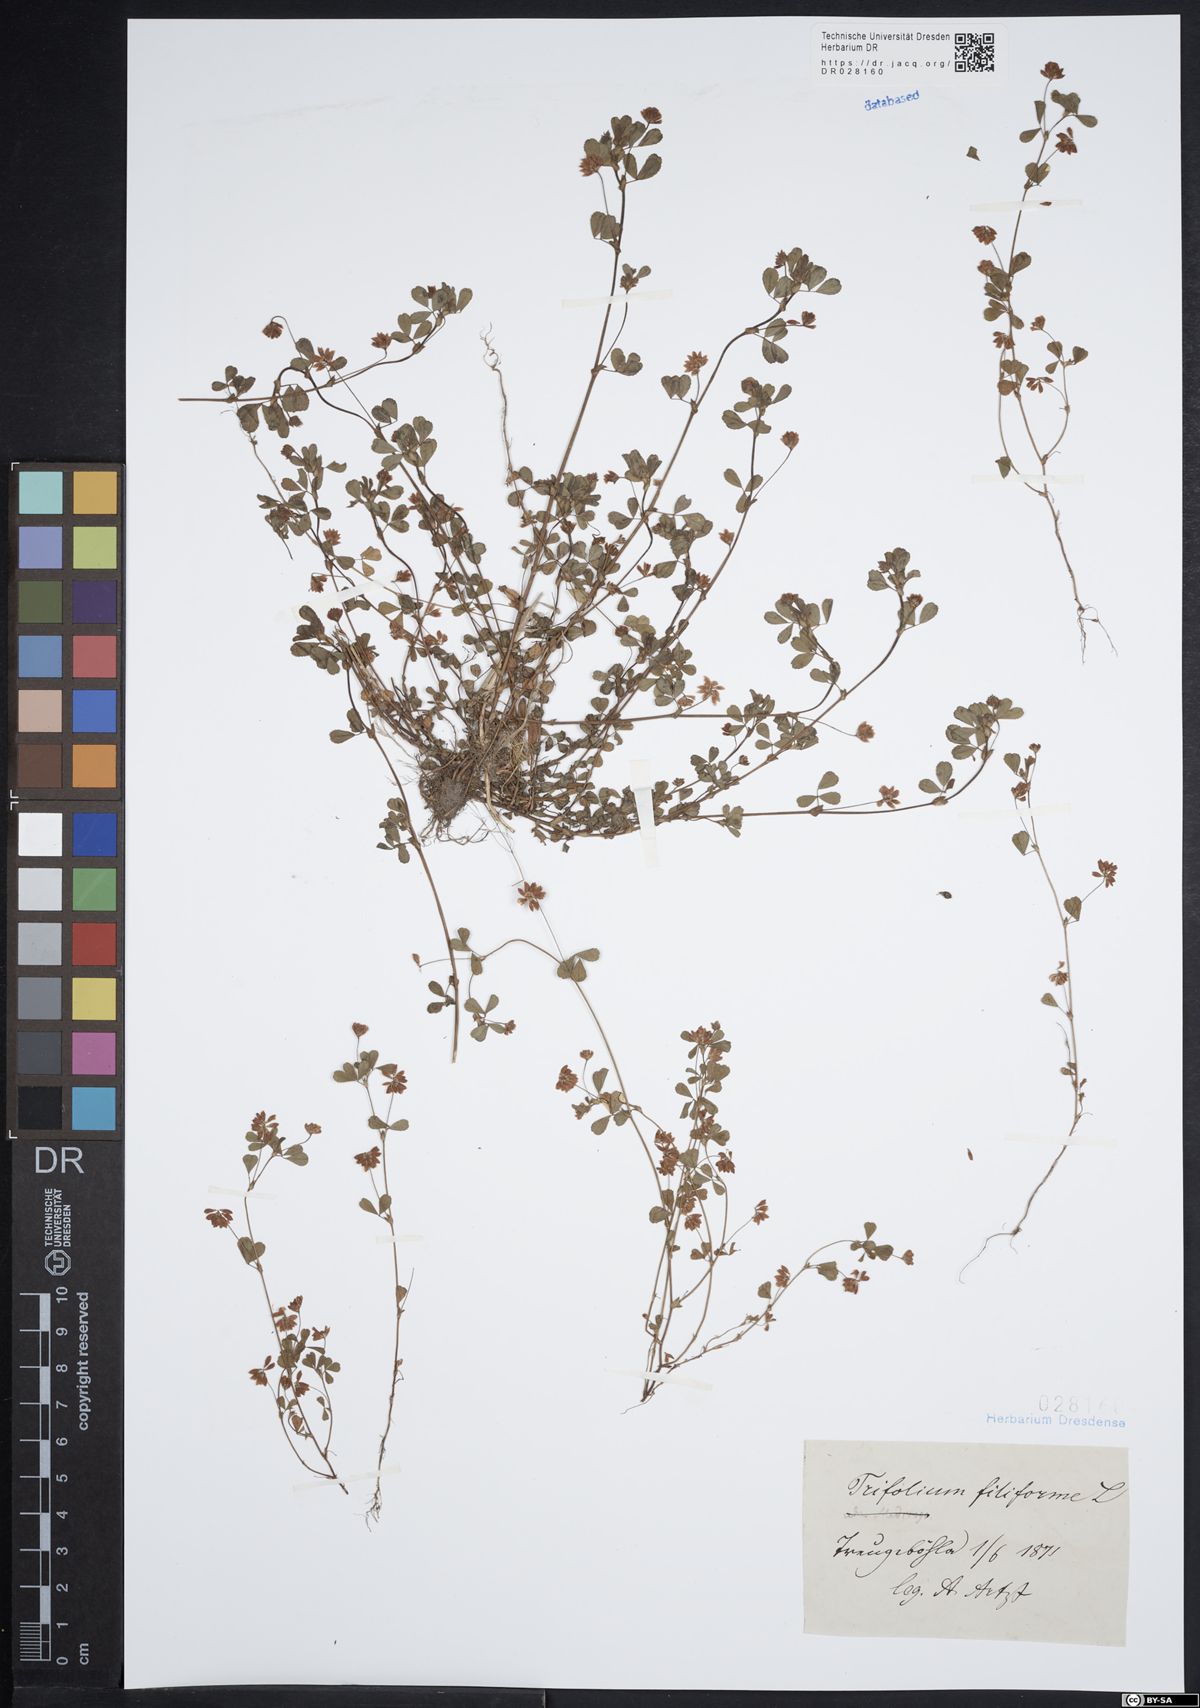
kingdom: Plantae
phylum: Tracheophyta
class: Magnoliopsida
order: Fabales
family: Fabaceae
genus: Trifolium
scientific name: Trifolium dubium
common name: Suckling clover
